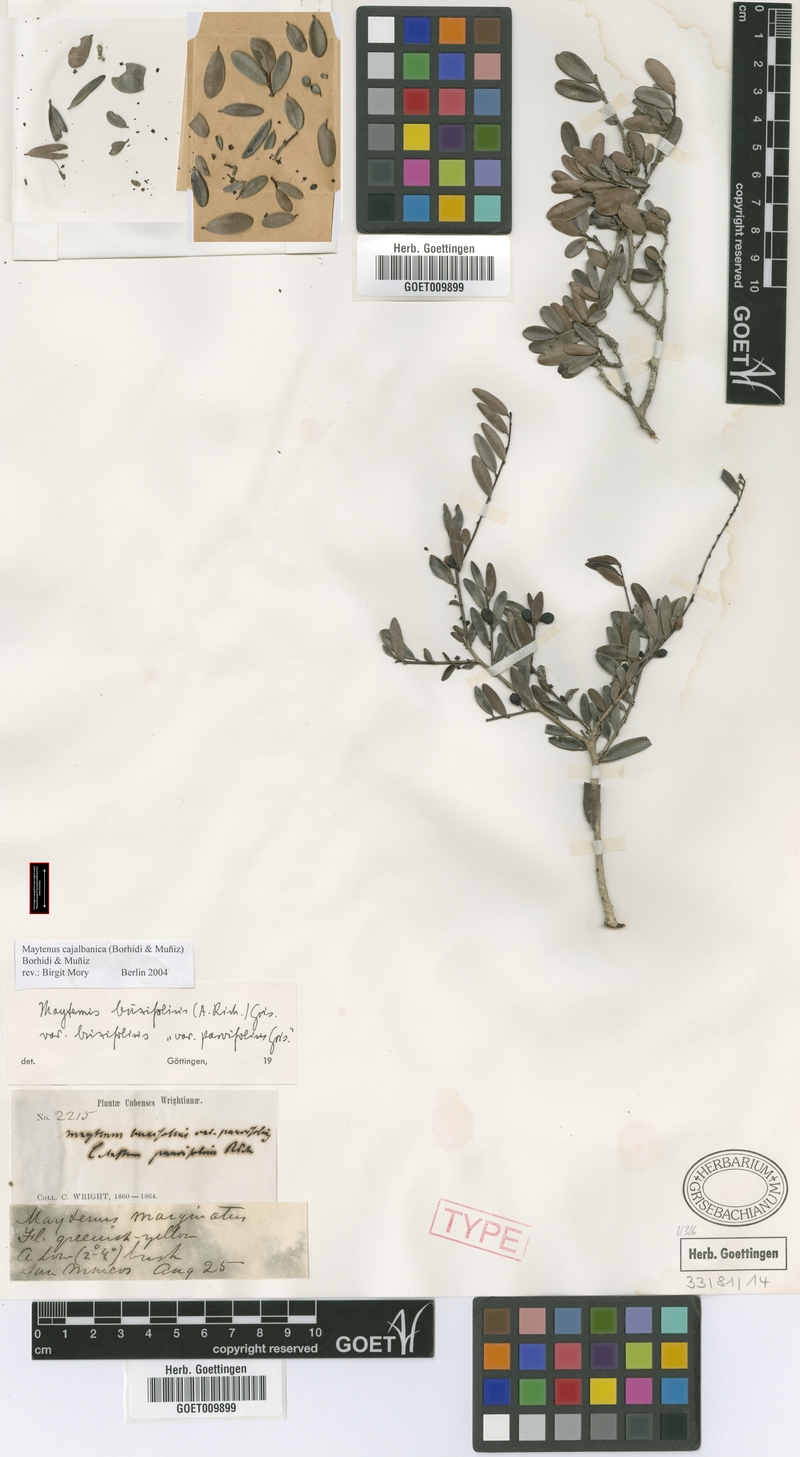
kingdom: Plantae
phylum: Tracheophyta
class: Magnoliopsida
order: Celastrales
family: Celastraceae
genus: Monteverdia
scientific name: Monteverdia buxifolia
